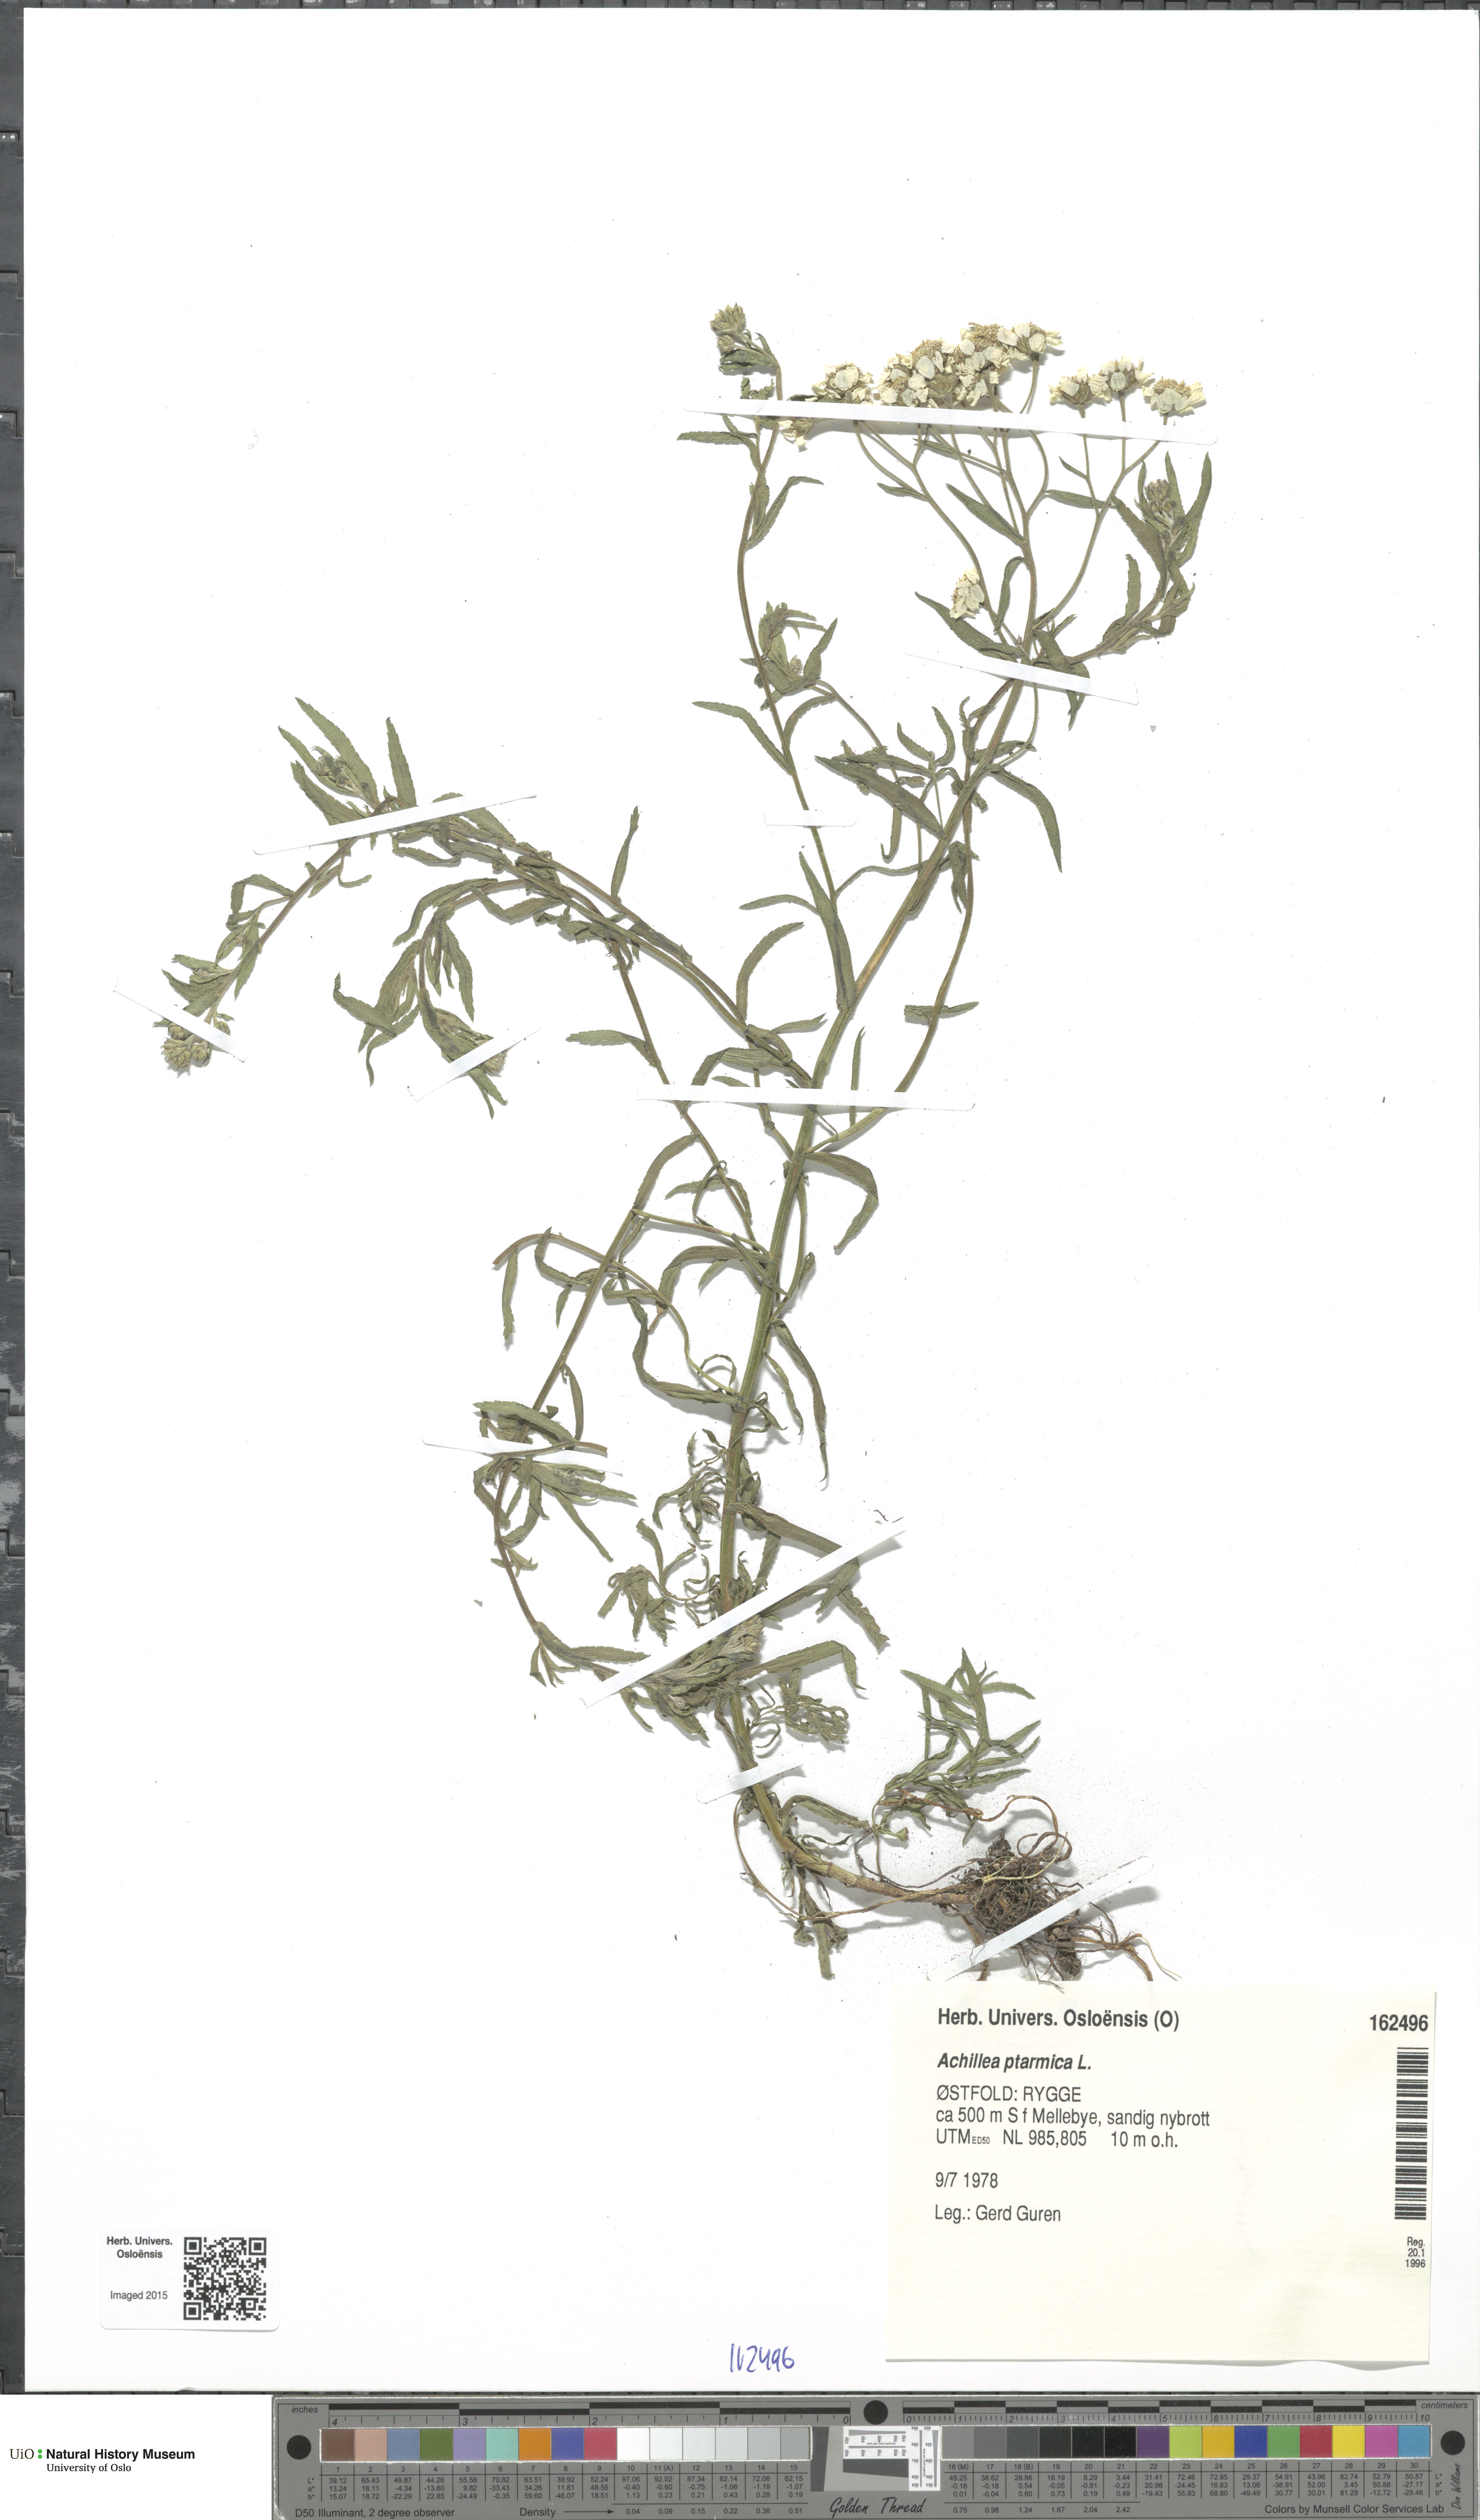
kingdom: Plantae
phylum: Tracheophyta
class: Magnoliopsida
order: Asterales
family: Asteraceae
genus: Achillea
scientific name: Achillea ptarmica
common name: Sneezeweed
